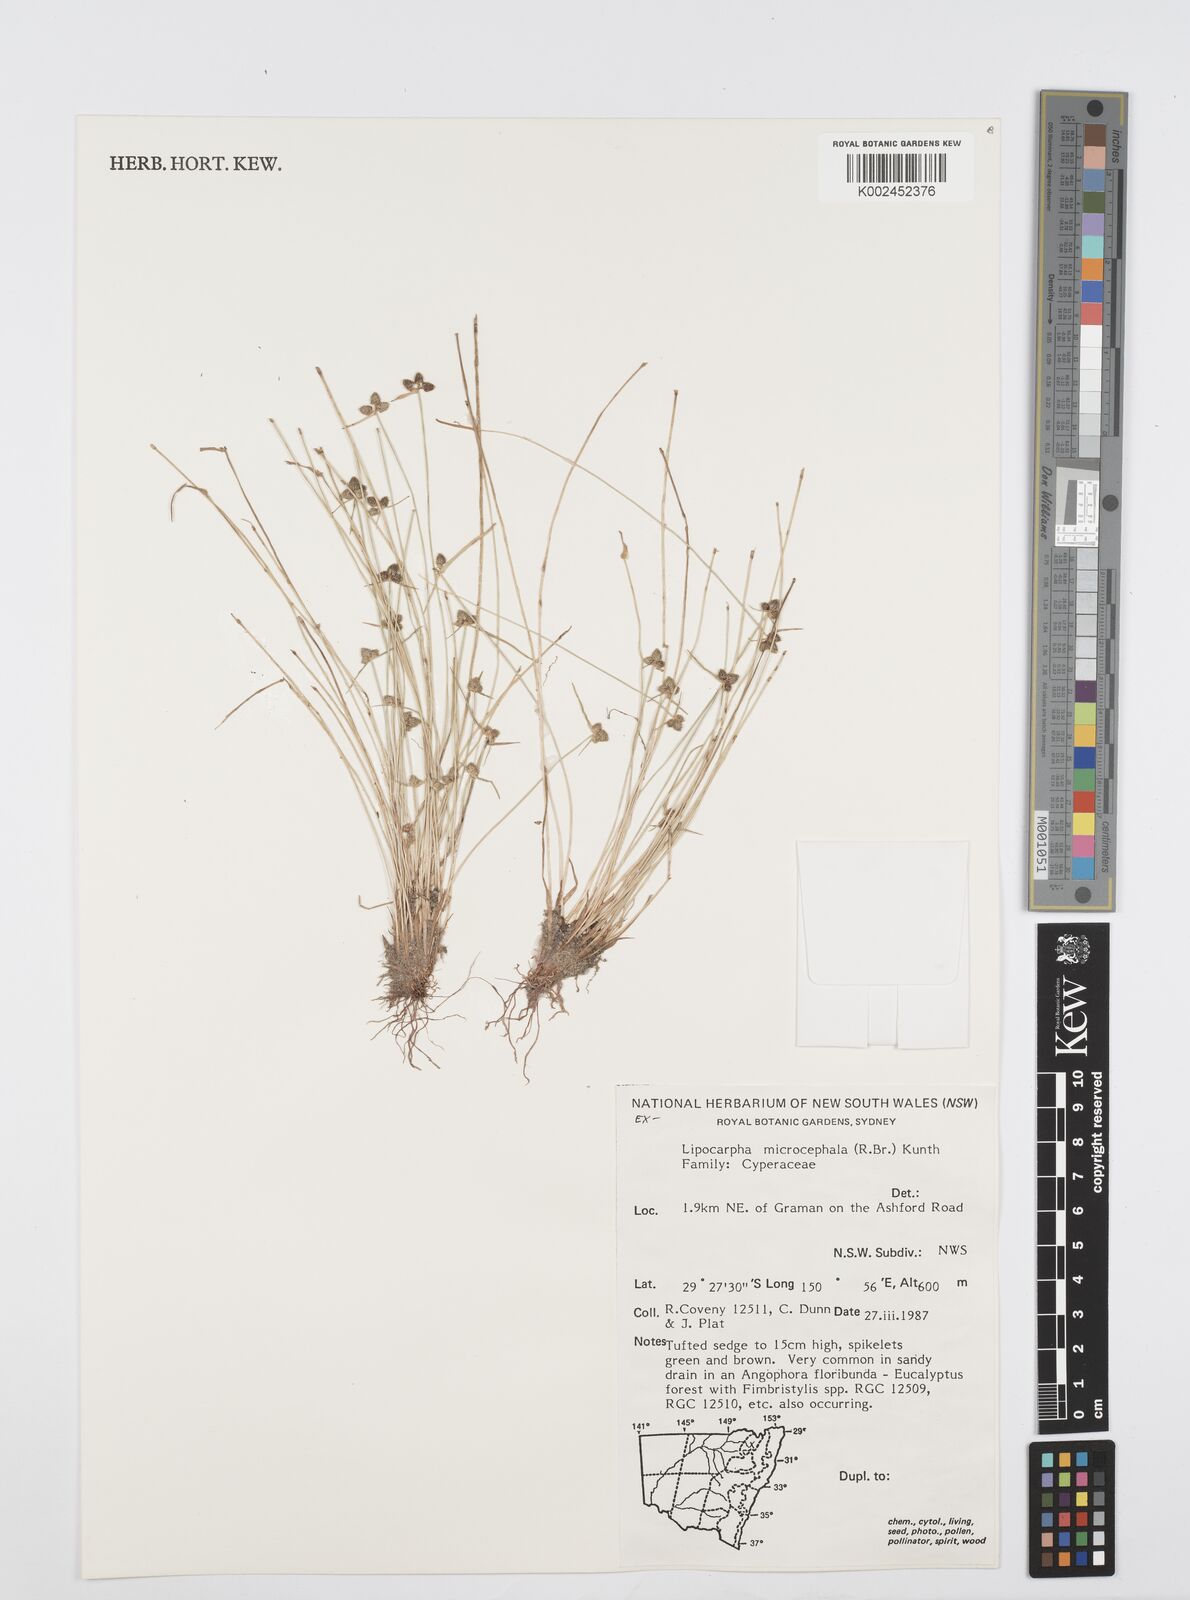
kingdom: Plantae
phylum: Tracheophyta
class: Liliopsida
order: Poales
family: Cyperaceae
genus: Cyperus
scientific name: Cyperus microcephalus
